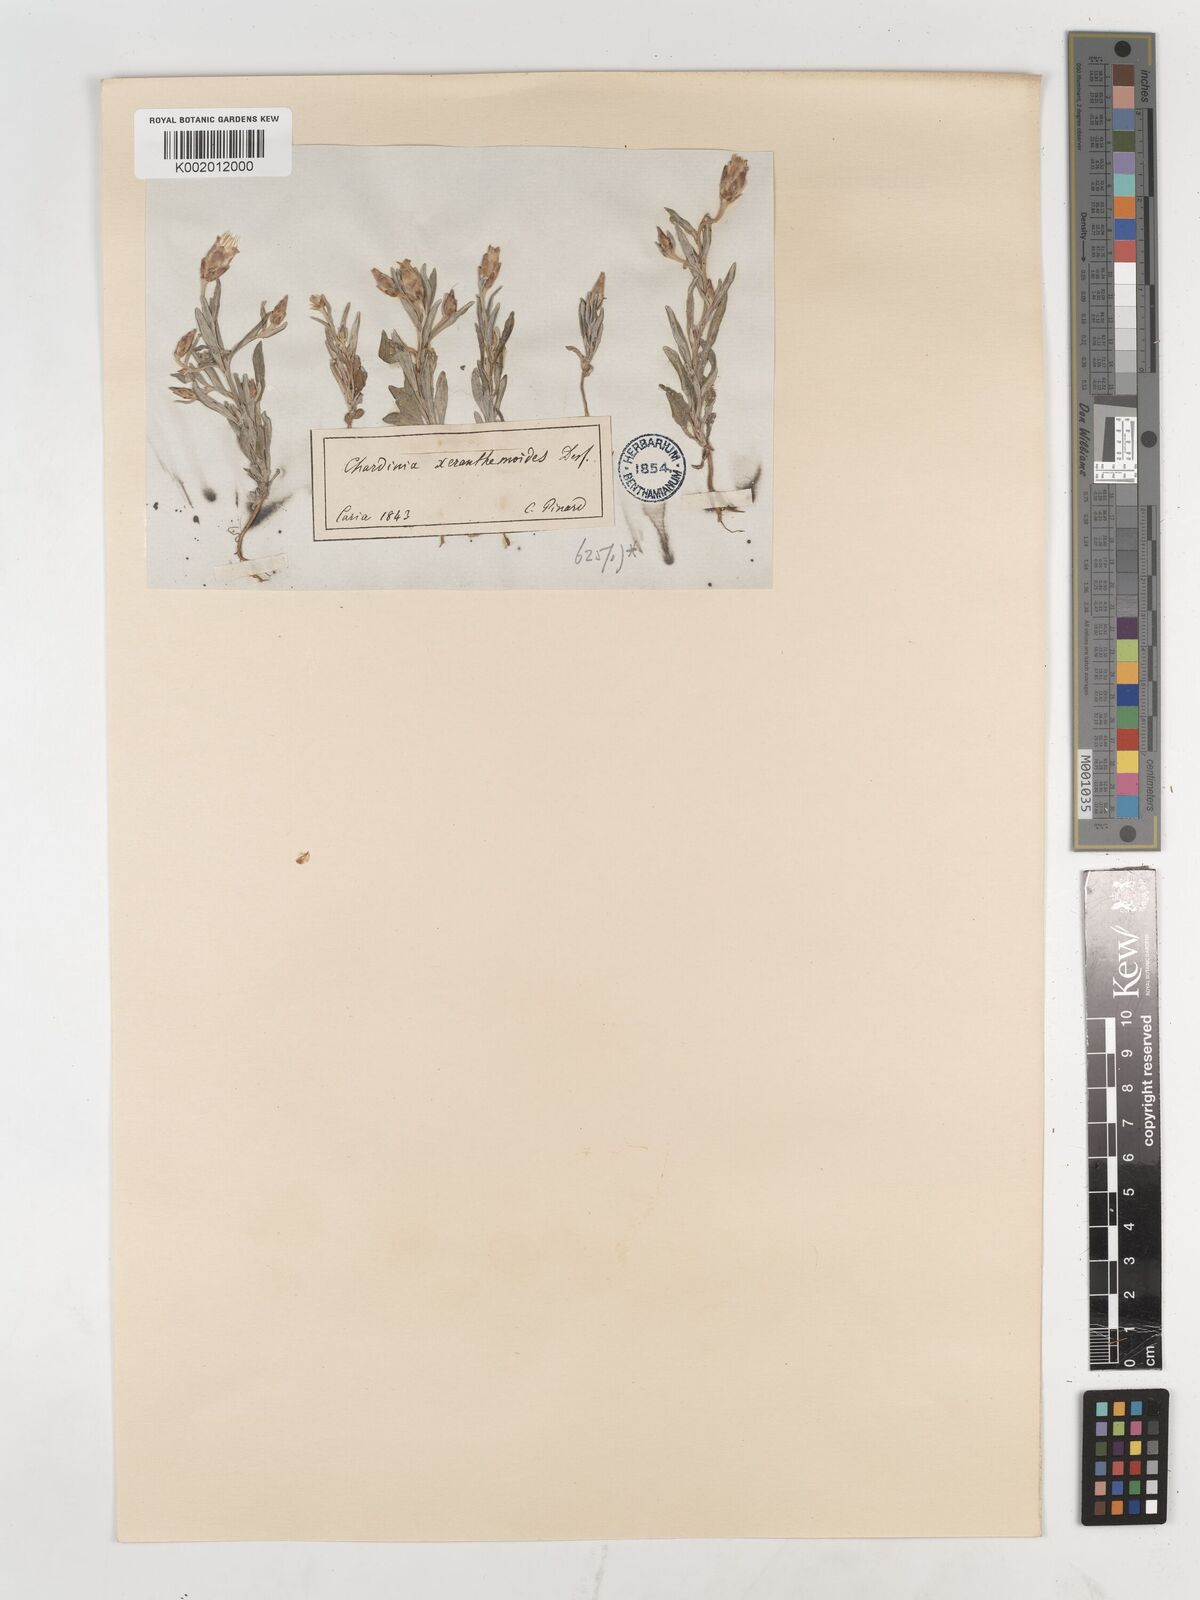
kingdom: Plantae
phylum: Tracheophyta
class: Magnoliopsida
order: Asterales
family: Asteraceae
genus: Chardinia
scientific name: Chardinia orientalis
